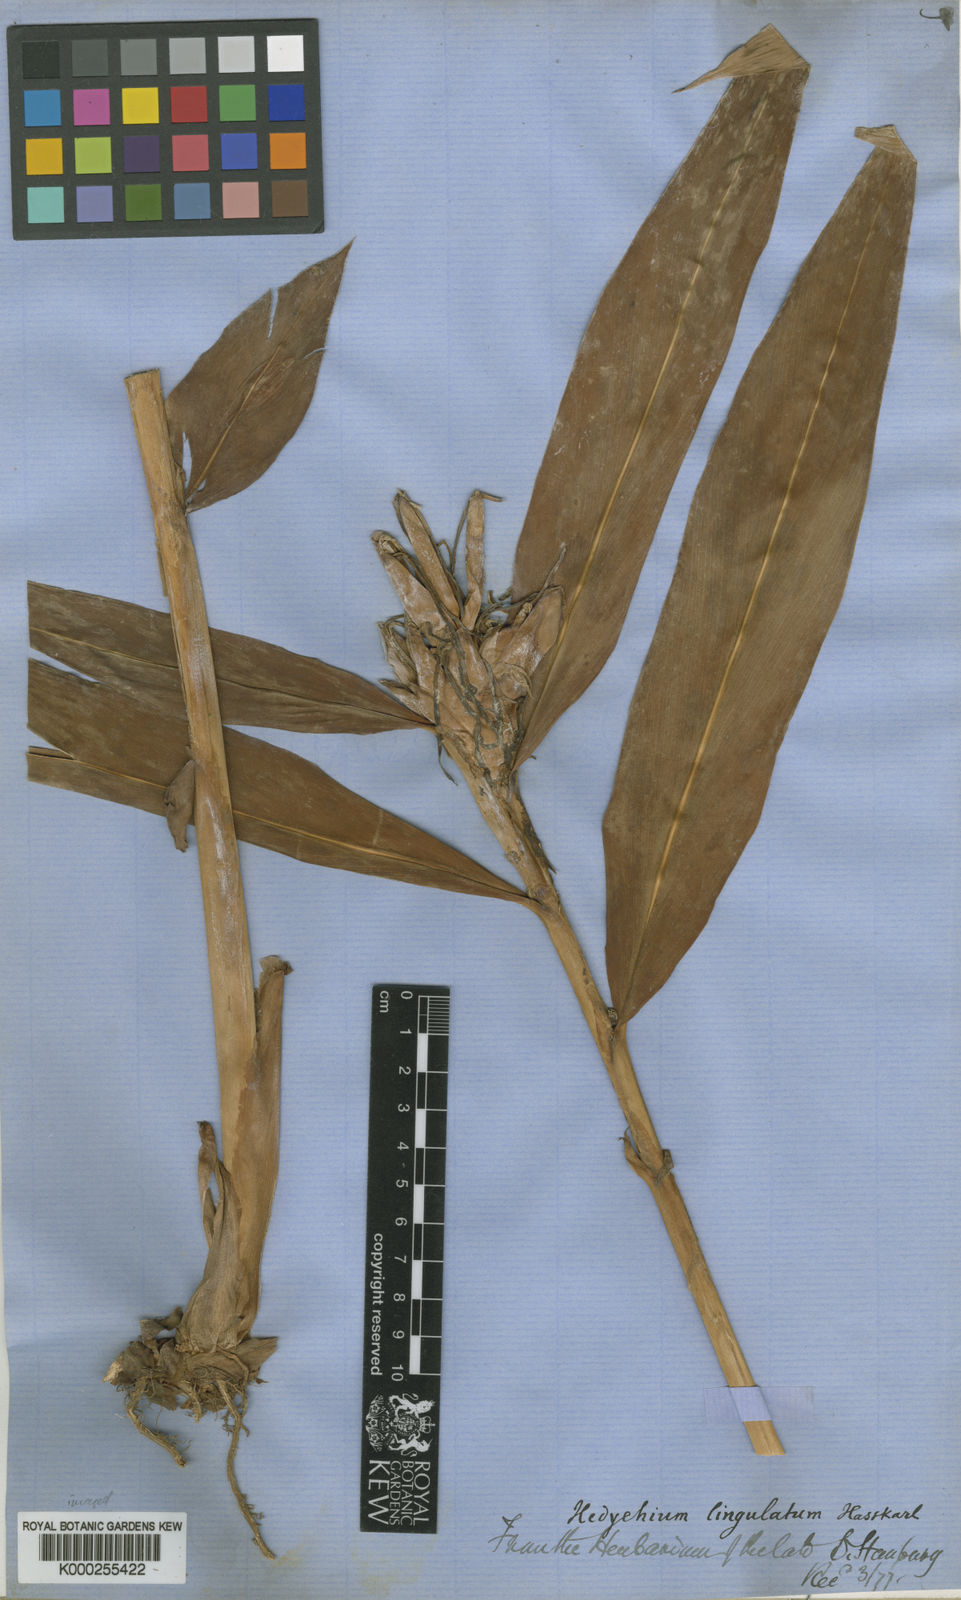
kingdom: Plantae
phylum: Tracheophyta
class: Liliopsida
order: Zingiberales
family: Zingiberaceae
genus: Hedychium
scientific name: Hedychium coronarium
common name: White garland-lily
